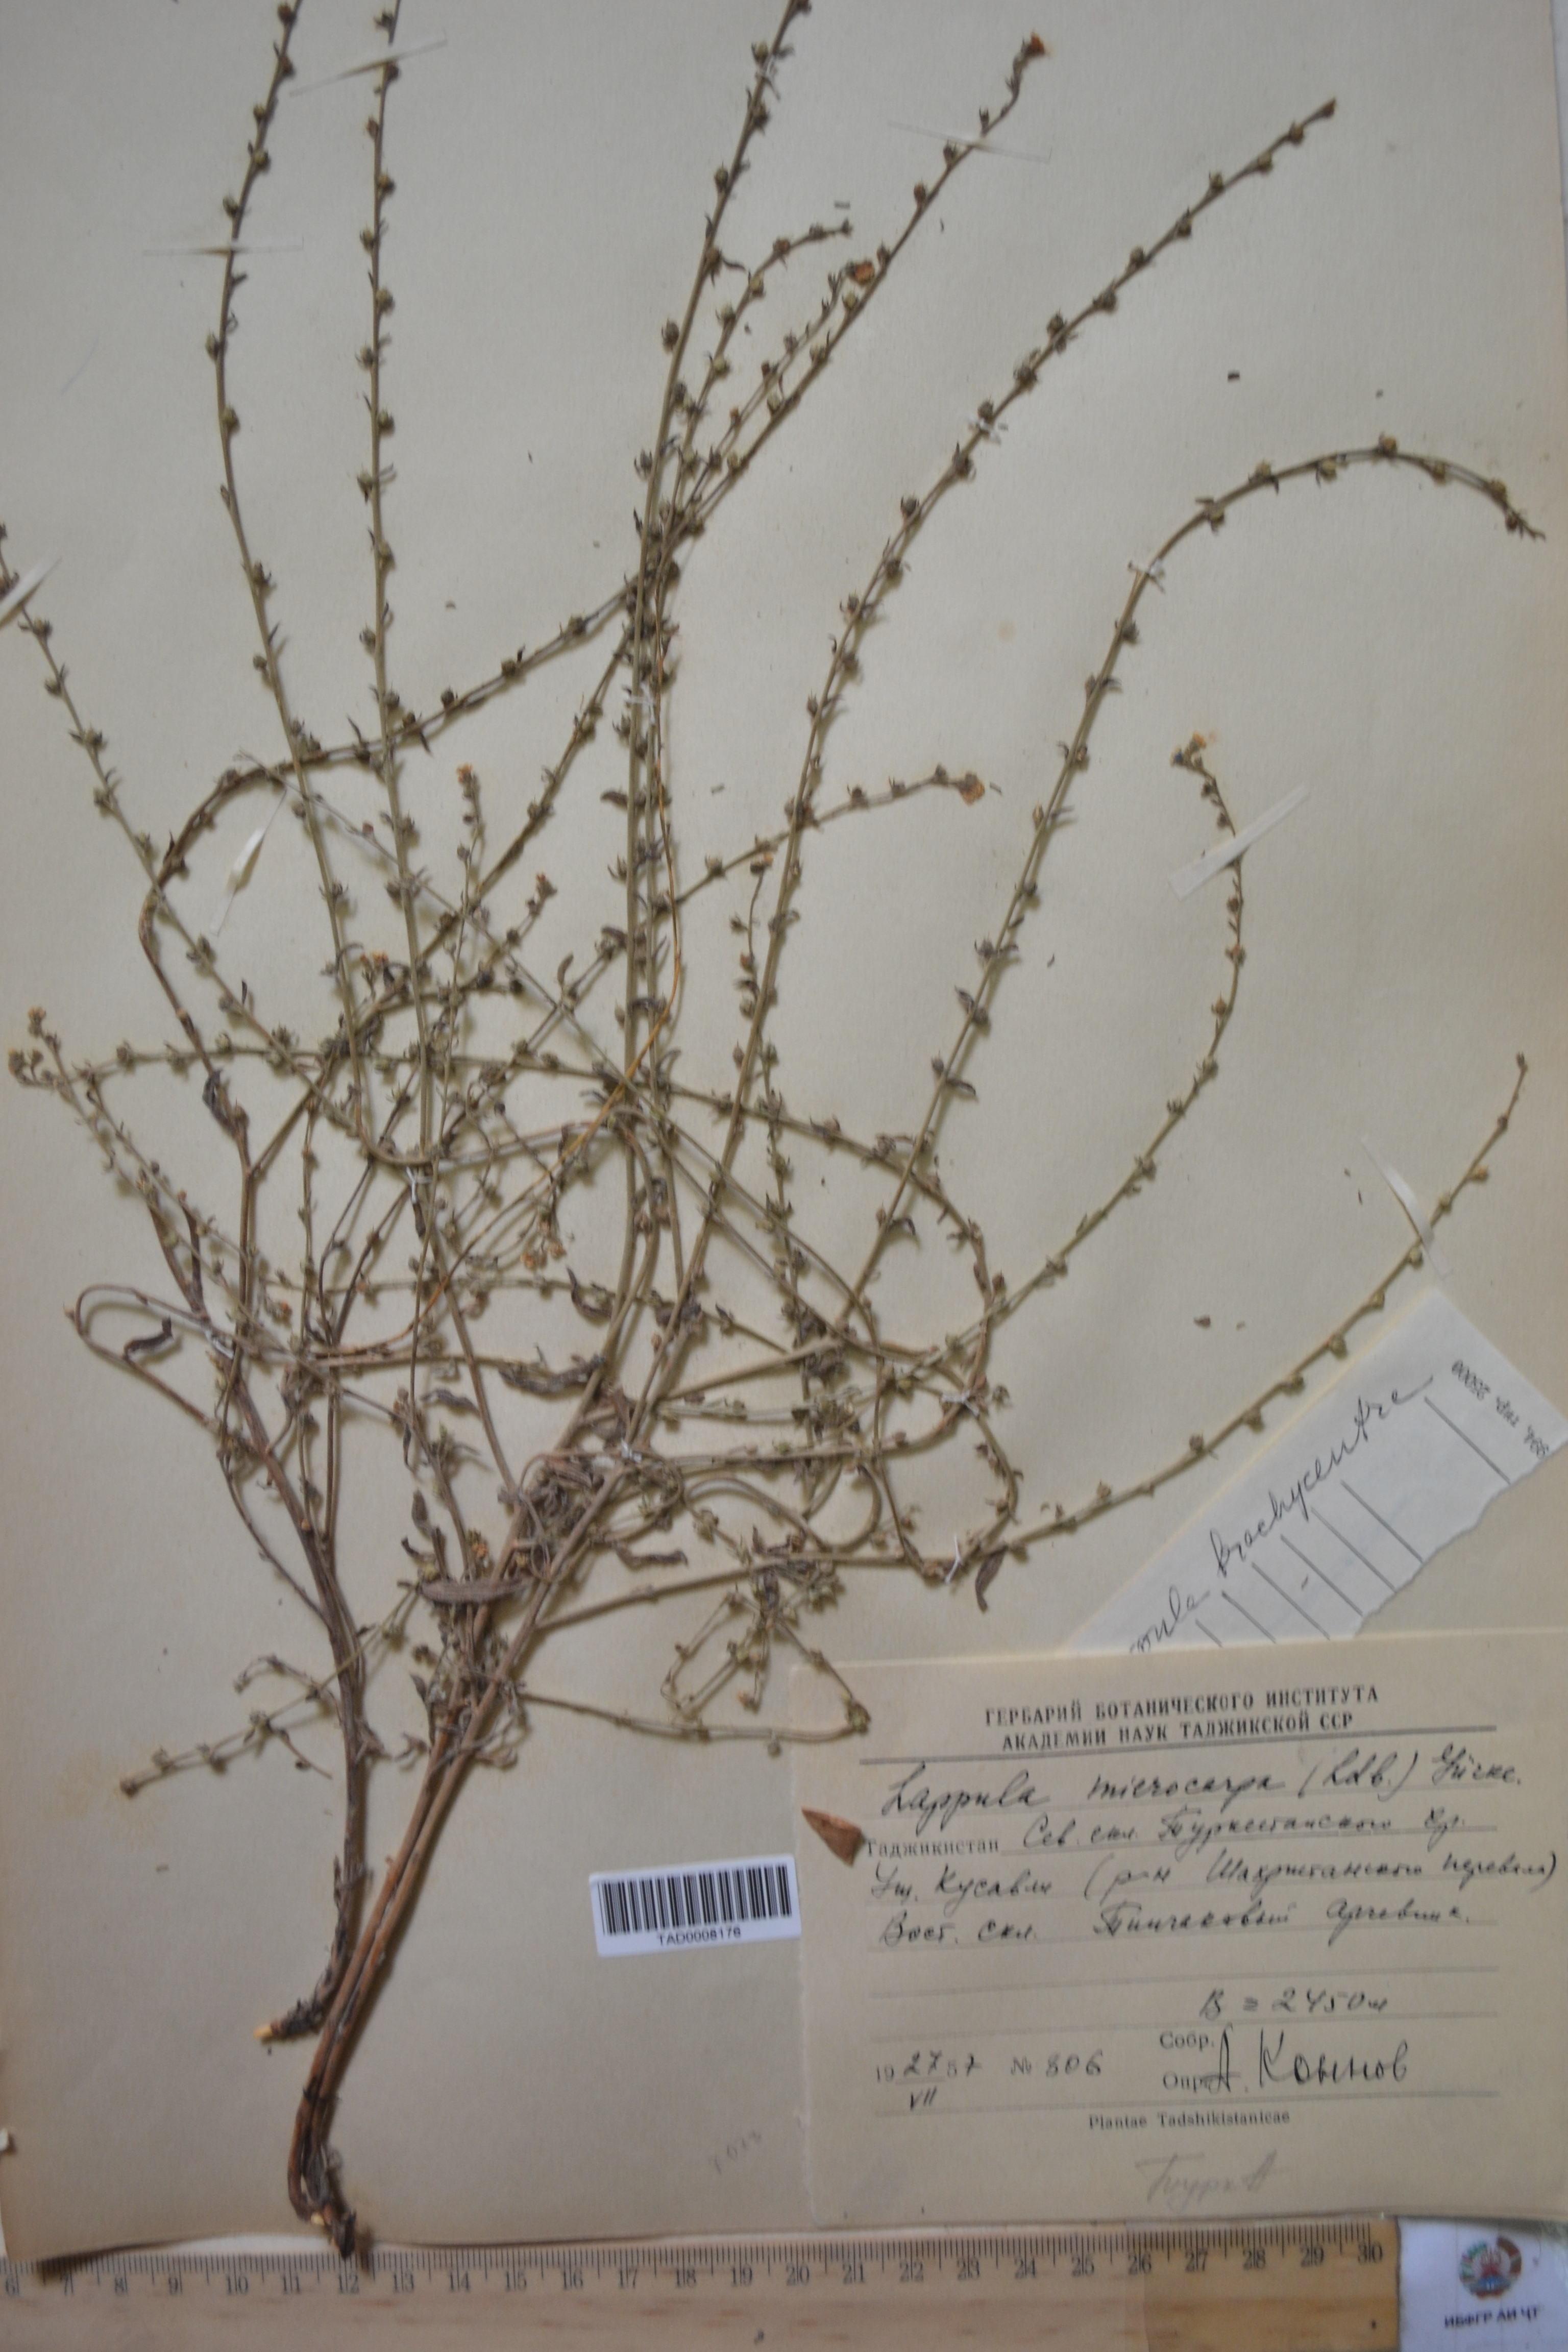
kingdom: Plantae
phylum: Tracheophyta
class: Magnoliopsida
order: Boraginales
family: Boraginaceae
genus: Lappula
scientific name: Lappula microcarpa
